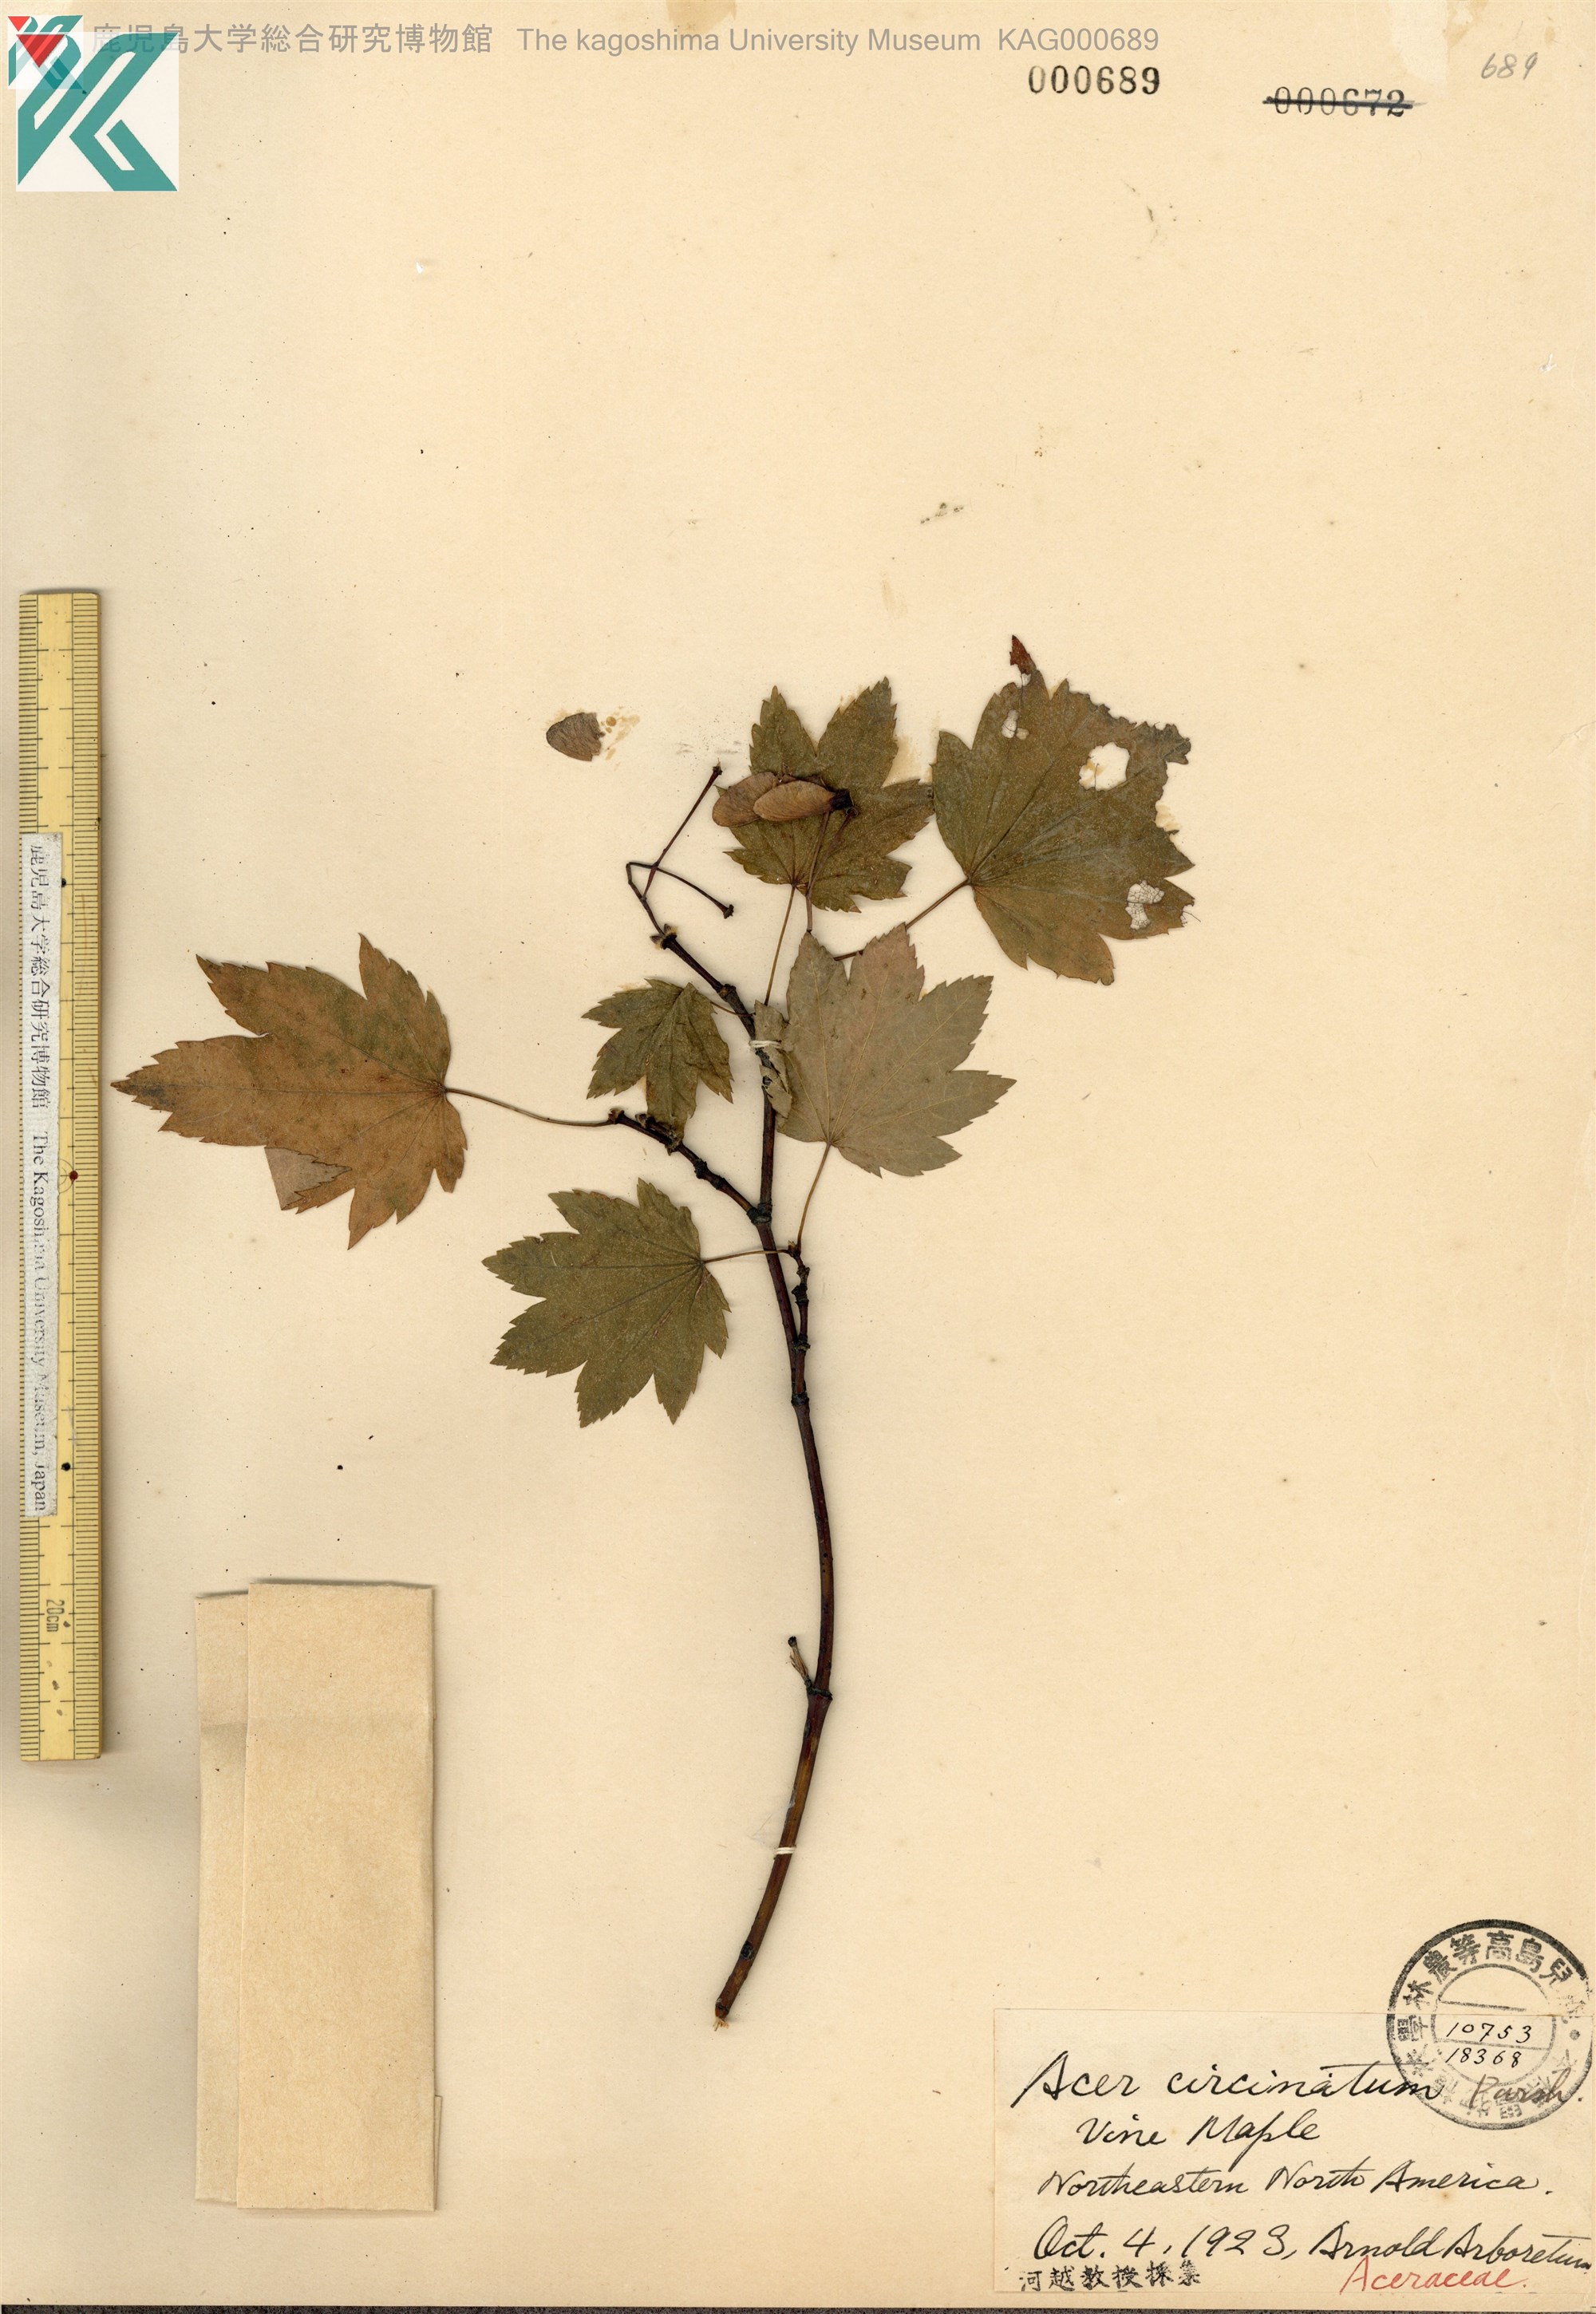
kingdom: Plantae
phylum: Tracheophyta
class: Magnoliopsida
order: Sapindales
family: Sapindaceae
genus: Acer
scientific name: Acer circinatum
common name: Vine maple
